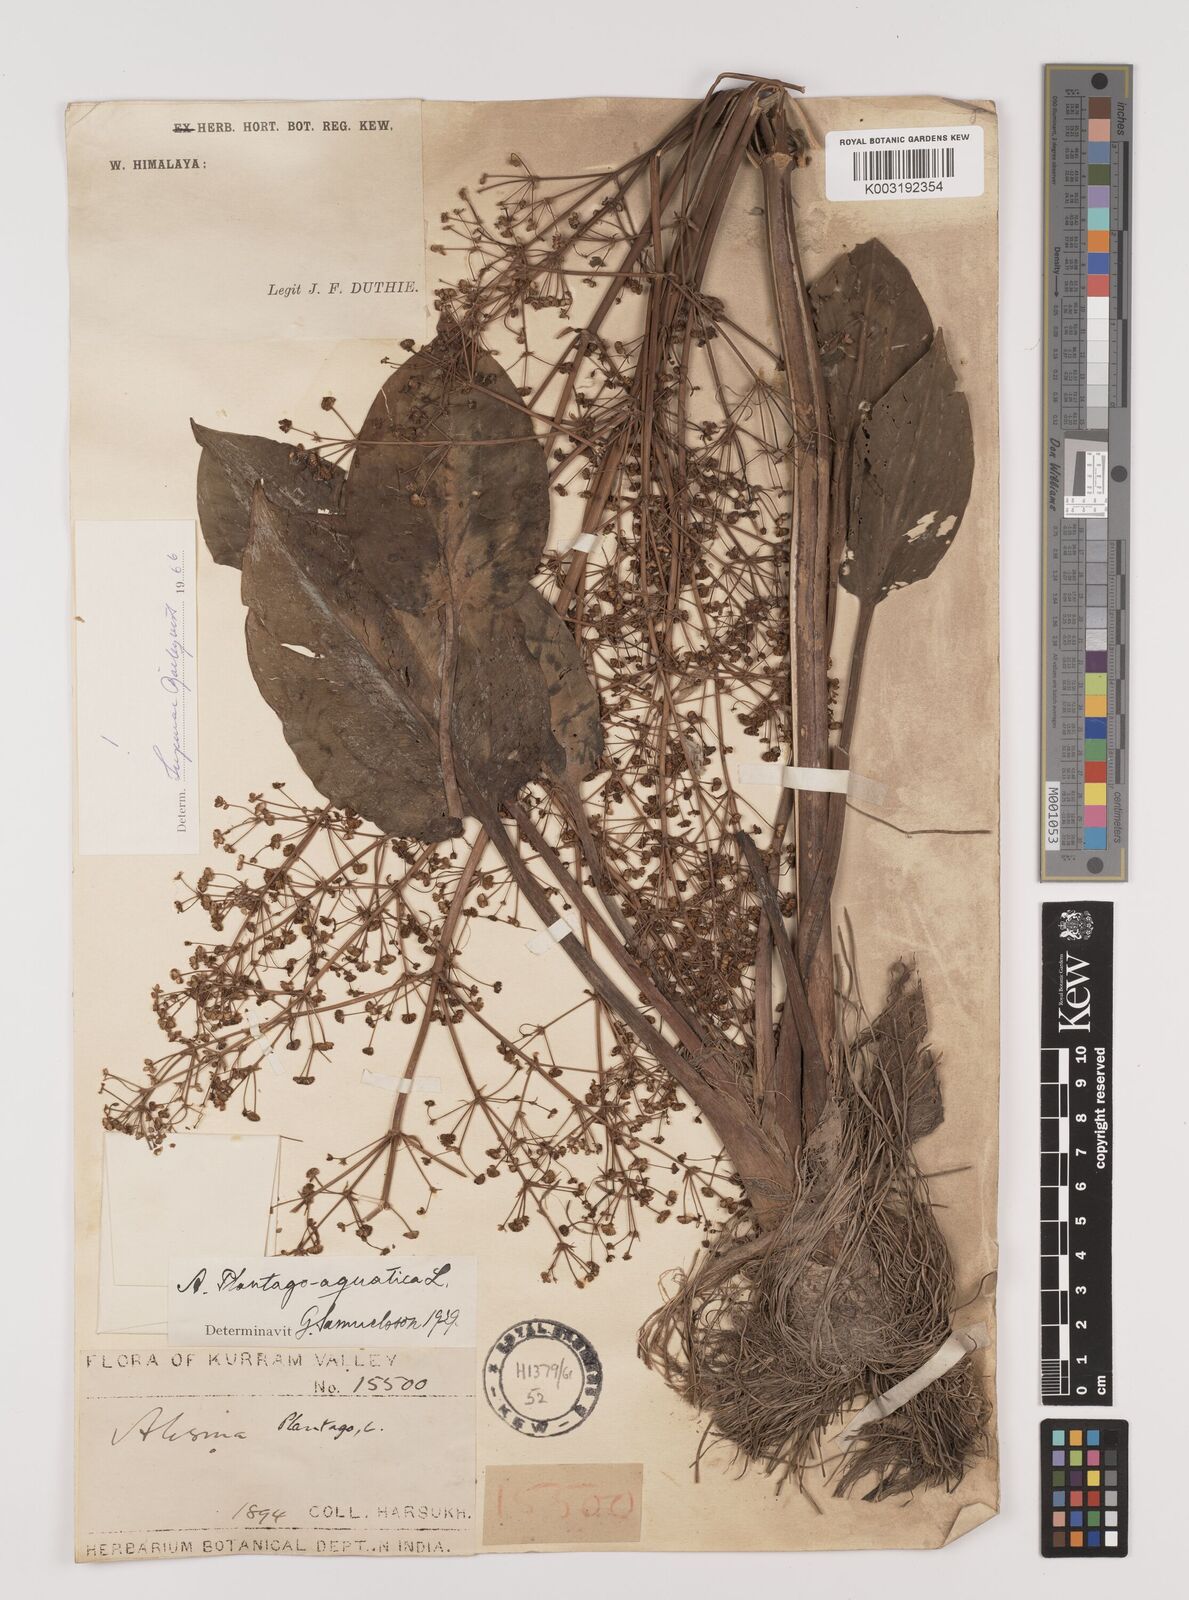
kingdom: Plantae
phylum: Tracheophyta
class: Liliopsida
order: Alismatales
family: Alismataceae
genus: Alisma
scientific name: Alisma plantago-aquatica
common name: Water-plantain
